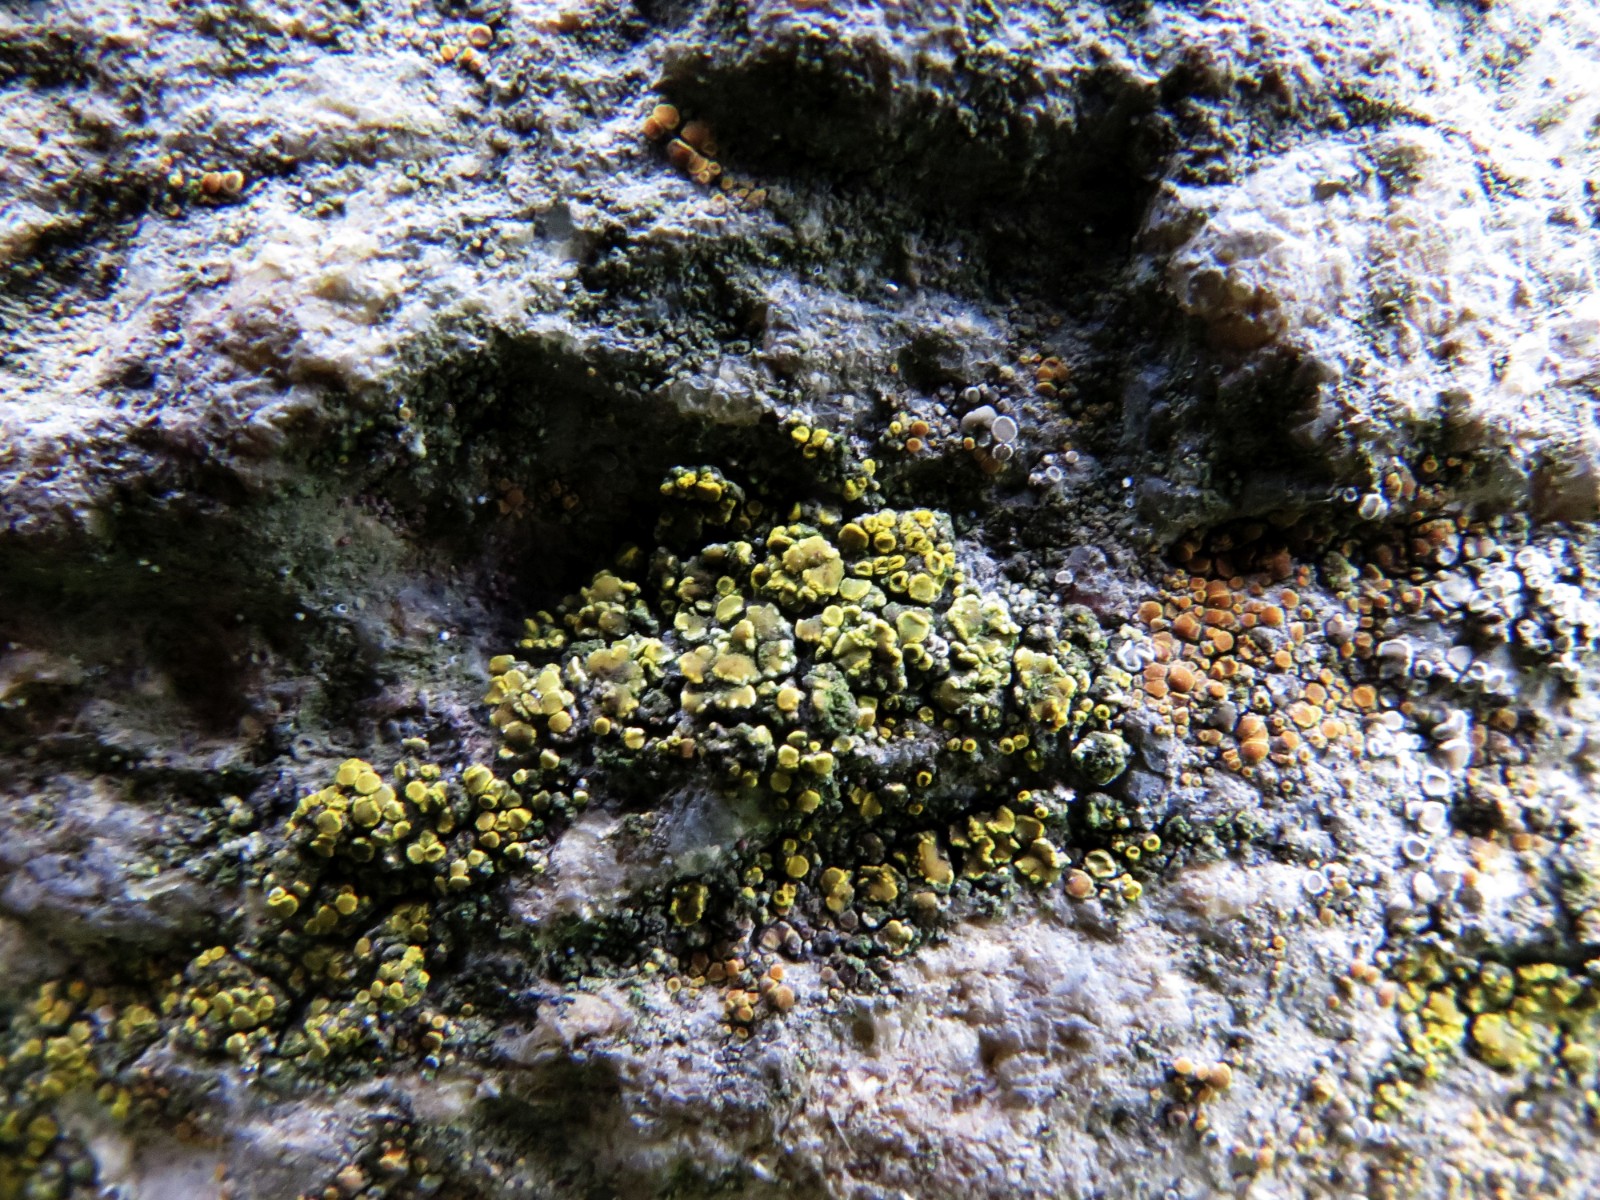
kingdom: Fungi
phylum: Ascomycota
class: Candelariomycetes
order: Candelariales
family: Candelariaceae
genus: Candelariella
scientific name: Candelariella aurella
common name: liden æggeblommelav
